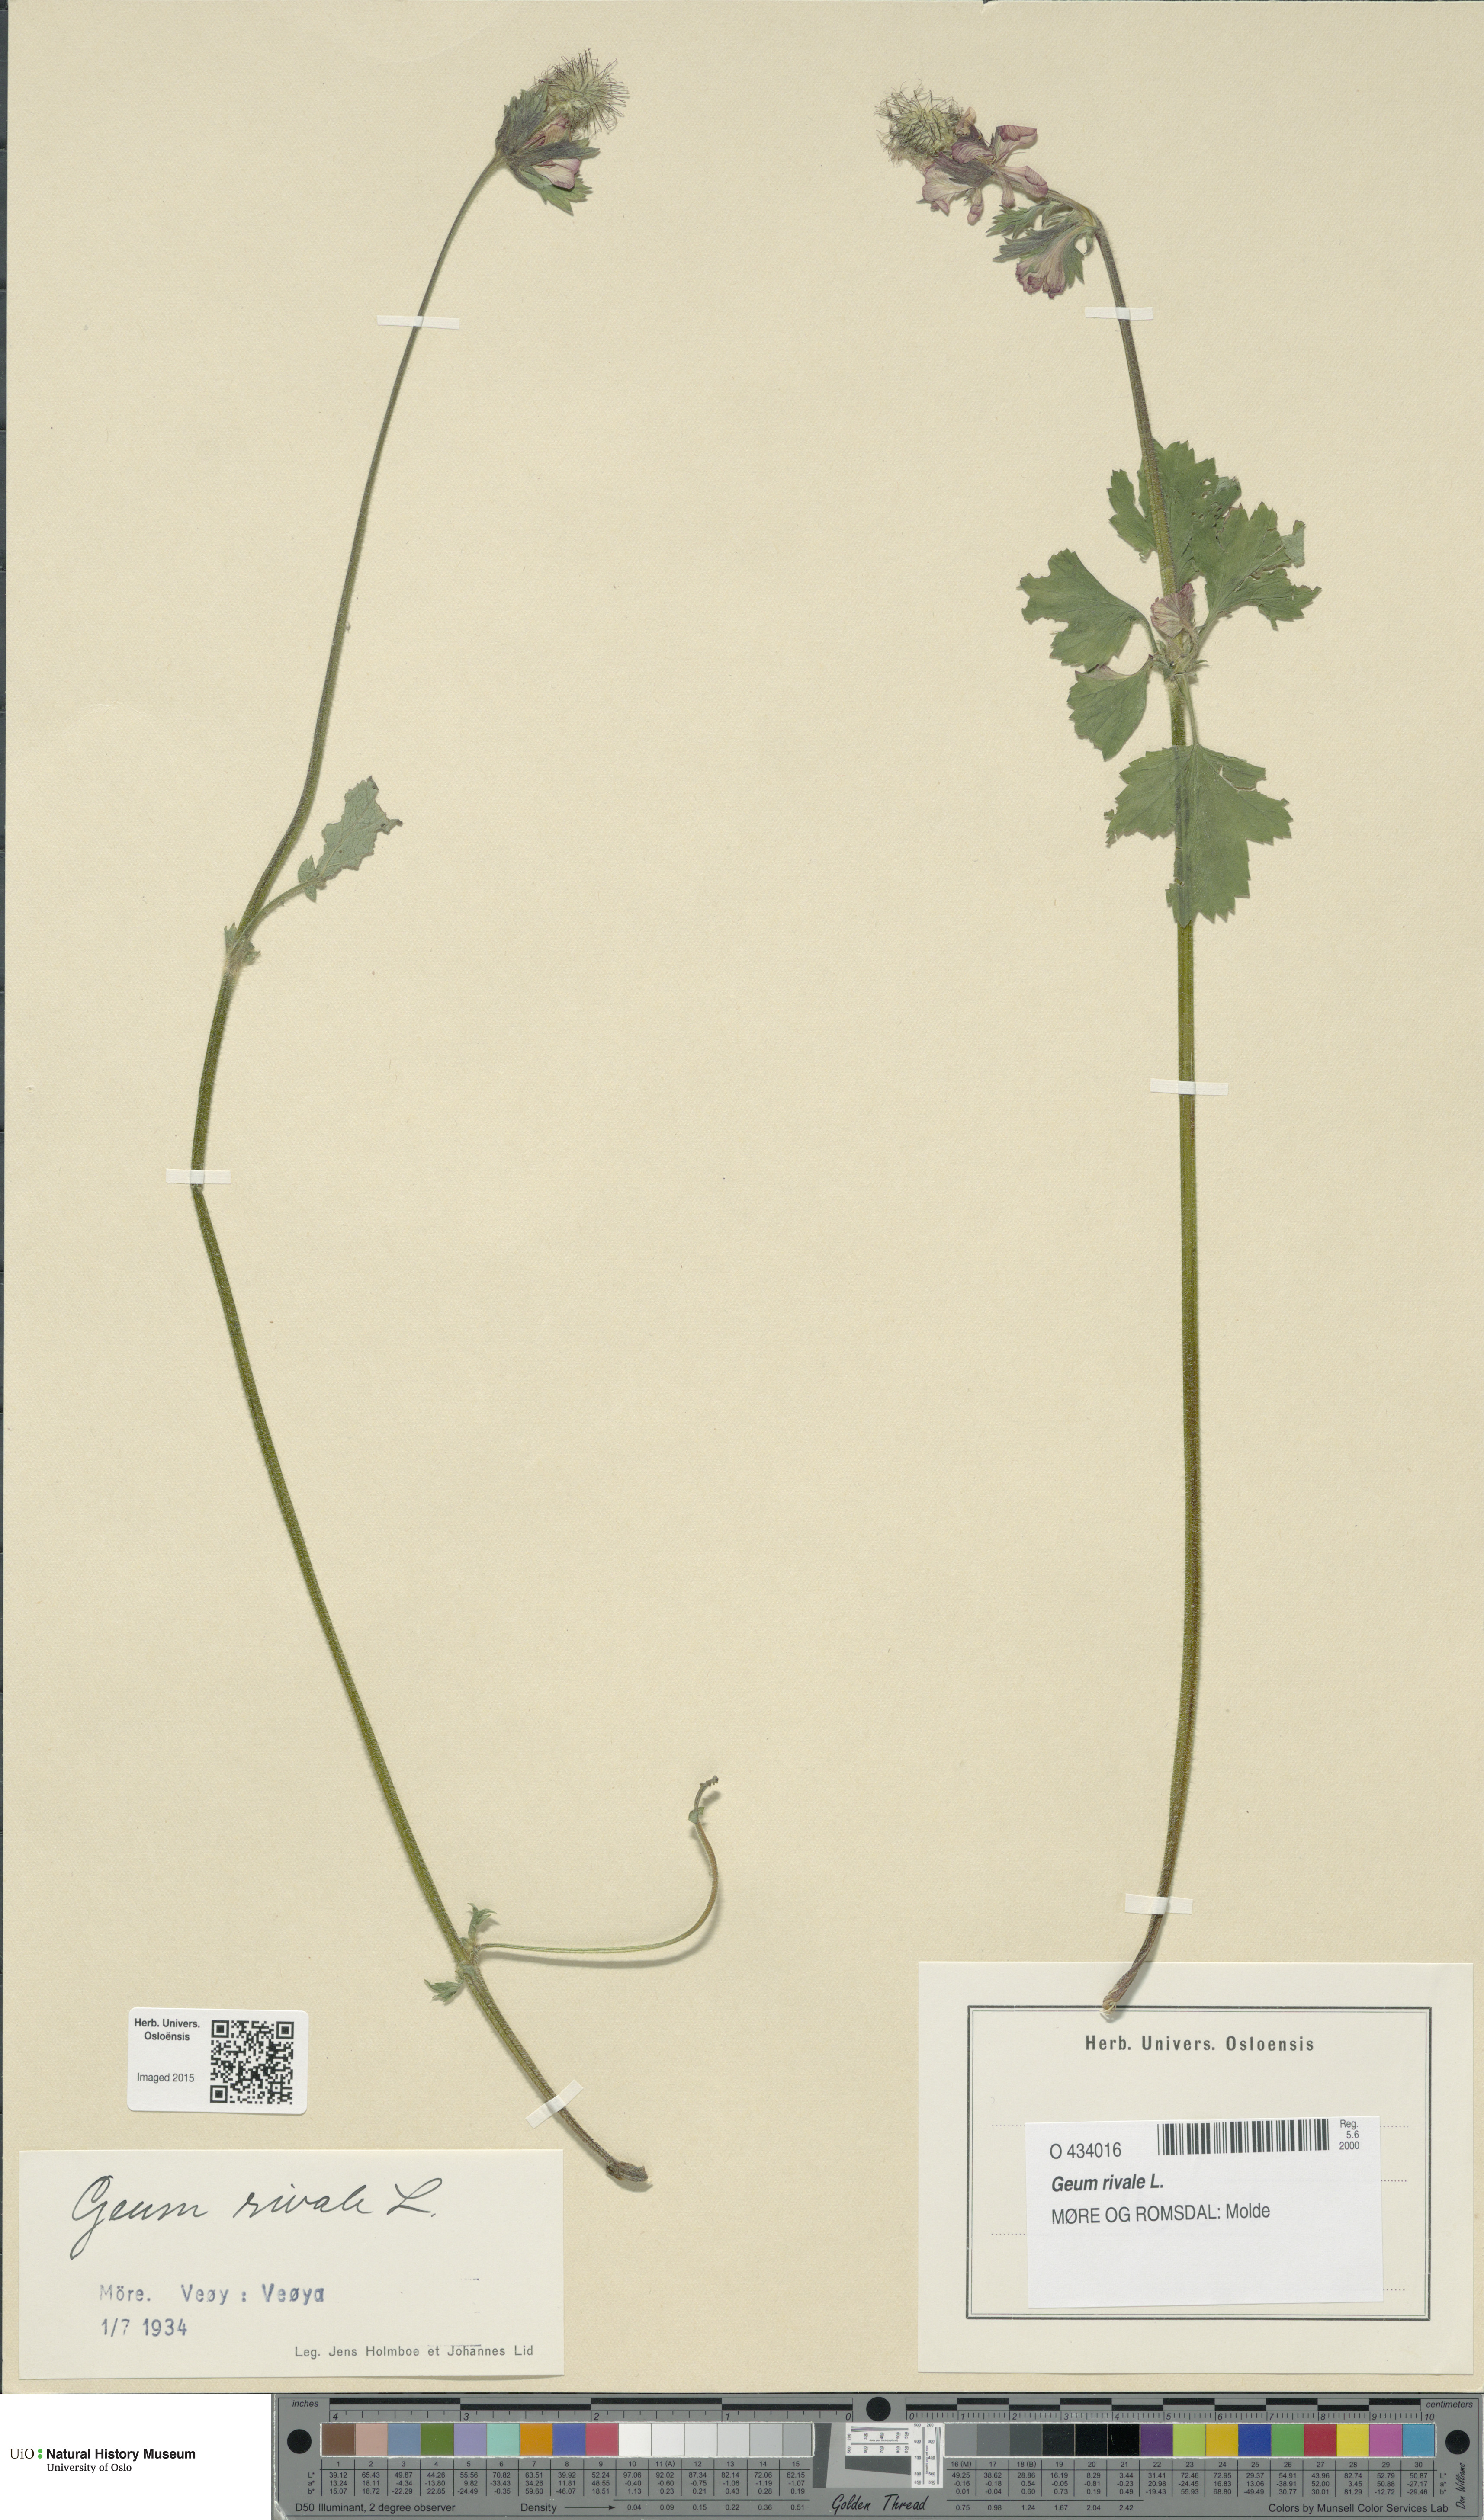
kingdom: Plantae
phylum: Tracheophyta
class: Magnoliopsida
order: Rosales
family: Rosaceae
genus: Geum
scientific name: Geum rivale
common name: Water avens
